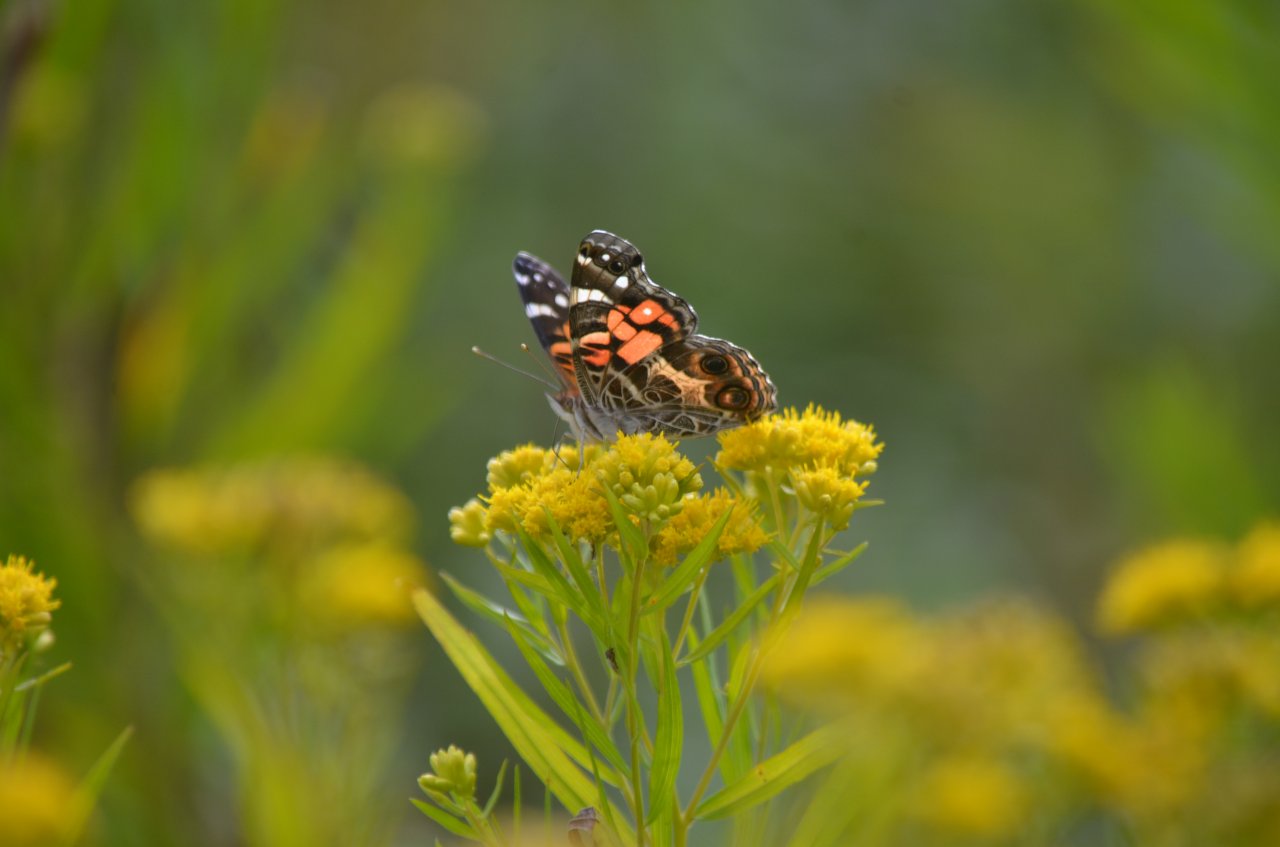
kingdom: Animalia
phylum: Arthropoda
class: Insecta
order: Lepidoptera
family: Nymphalidae
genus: Vanessa
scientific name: Vanessa virginiensis
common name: American Lady
